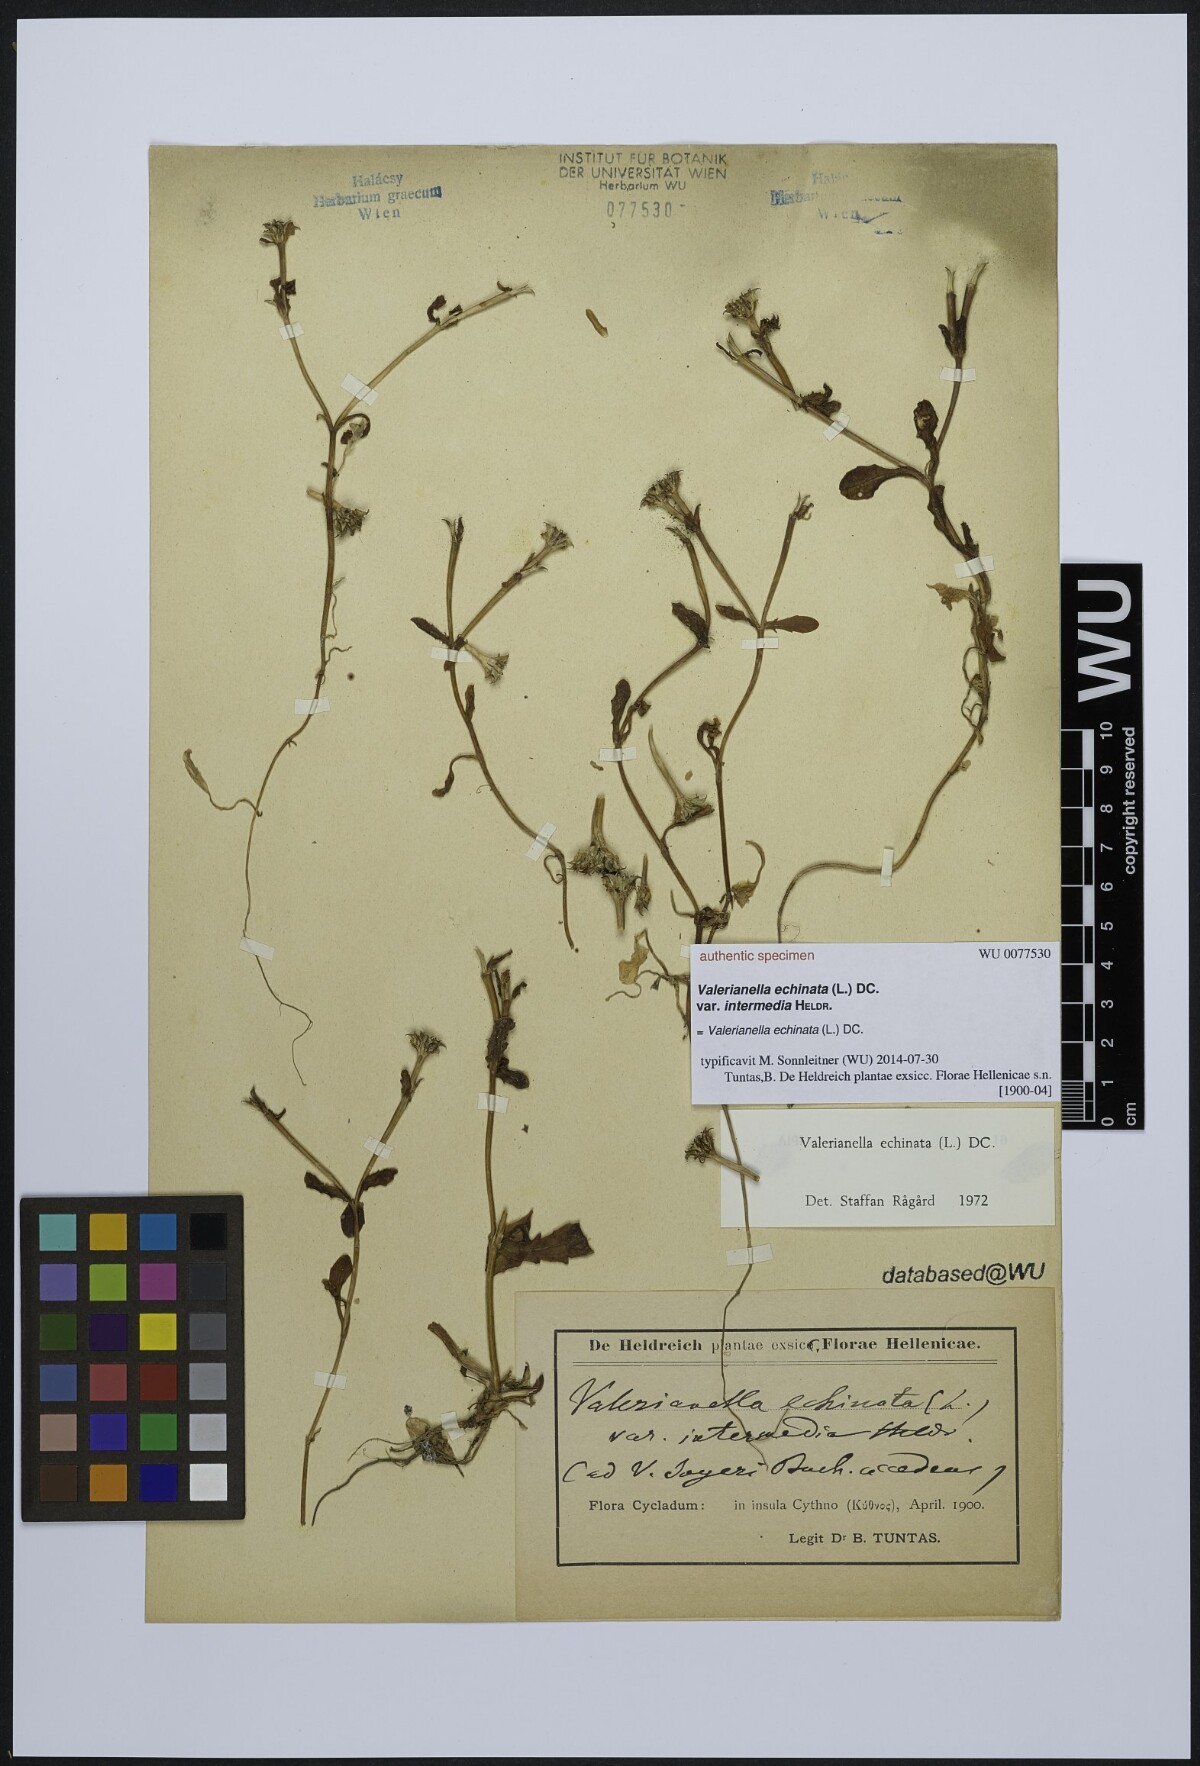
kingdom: Plantae
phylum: Tracheophyta
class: Magnoliopsida
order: Dipsacales
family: Caprifoliaceae
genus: Valerianella
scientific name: Valerianella echinata
